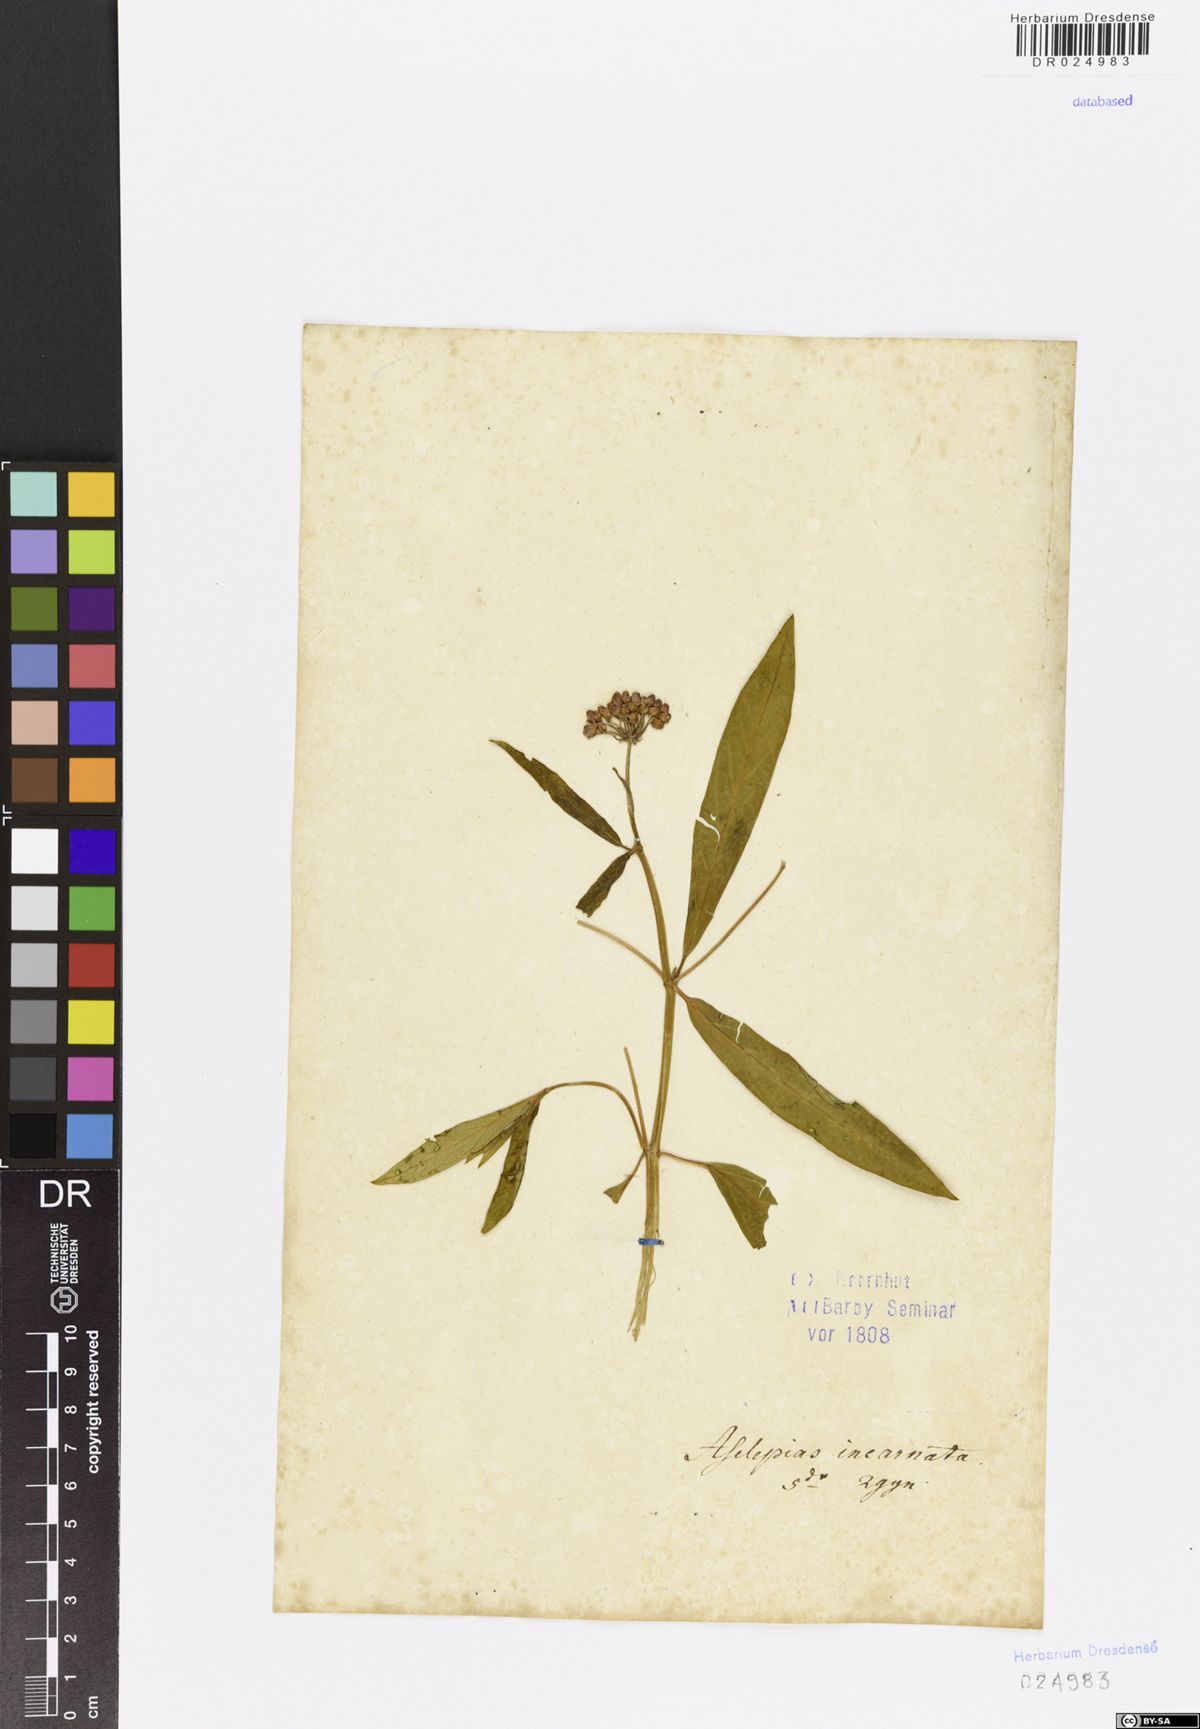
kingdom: Plantae
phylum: Tracheophyta
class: Magnoliopsida
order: Gentianales
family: Apocynaceae
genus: Asclepias
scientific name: Asclepias incarnata
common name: Swamp milkweed
